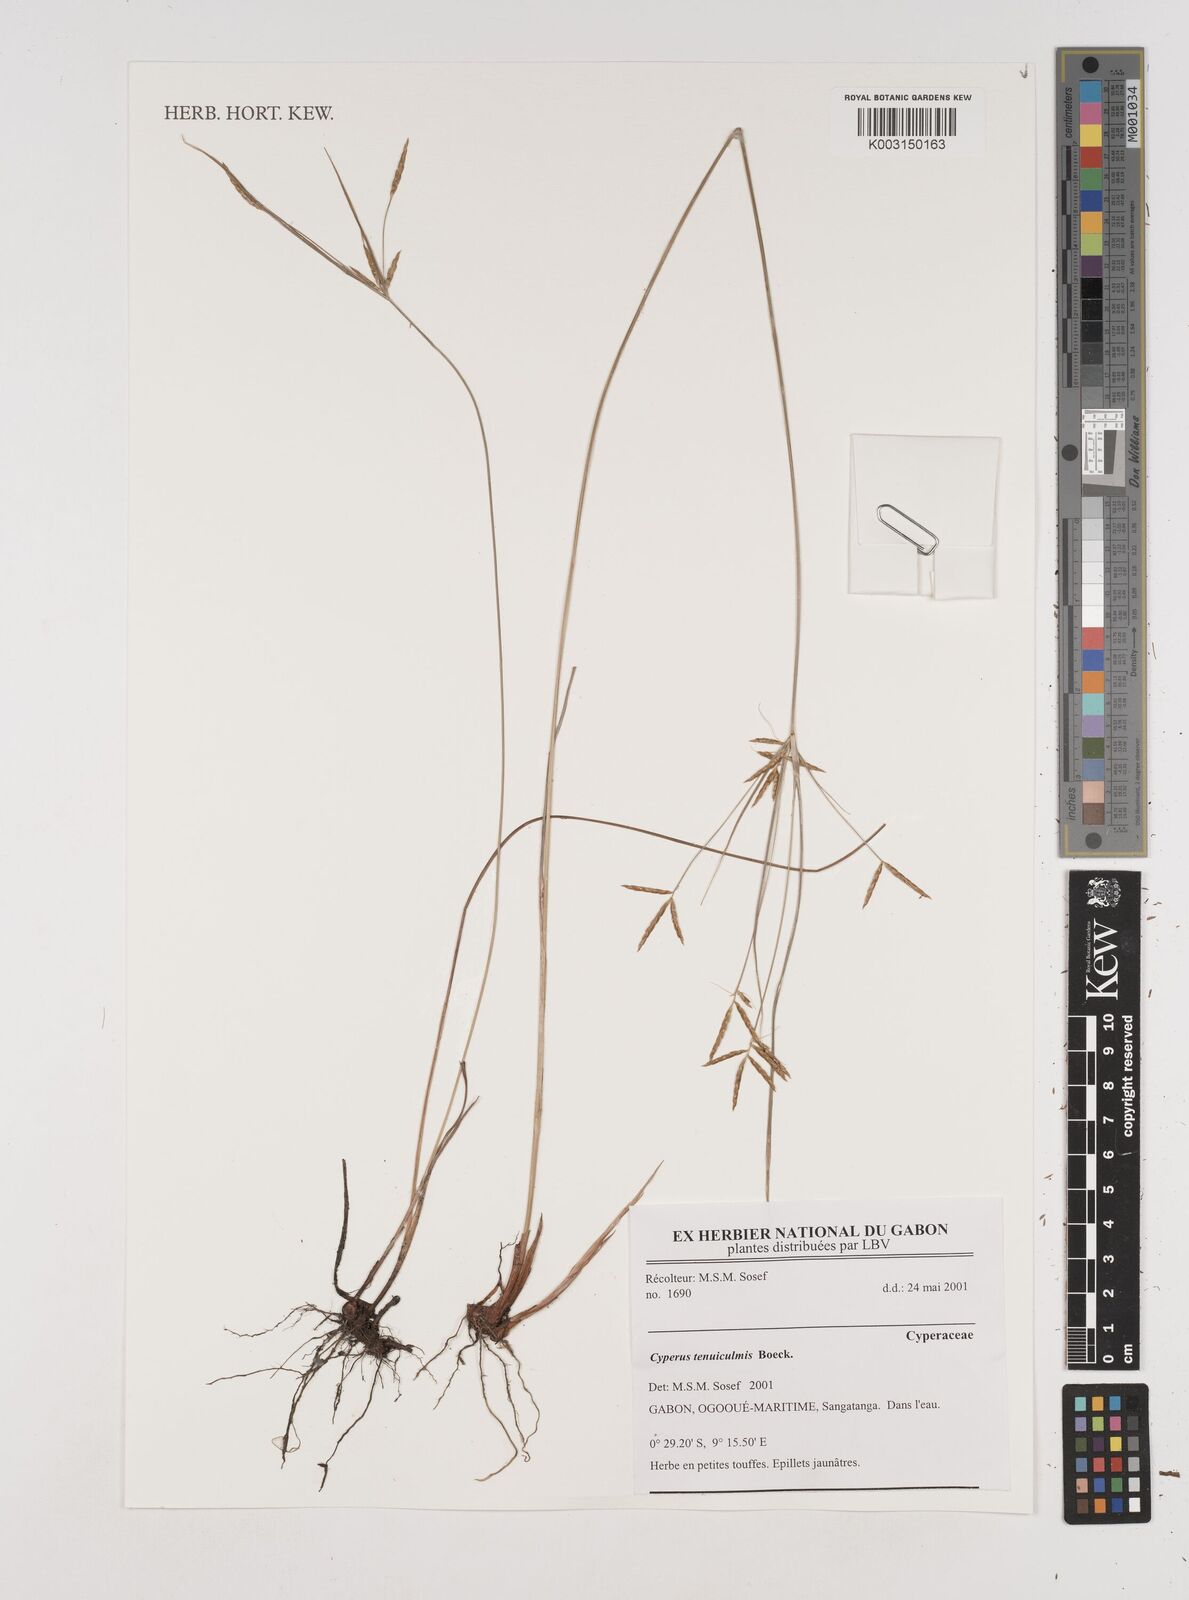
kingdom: Plantae
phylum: Tracheophyta
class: Liliopsida
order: Poales
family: Cyperaceae
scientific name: Cyperaceae
